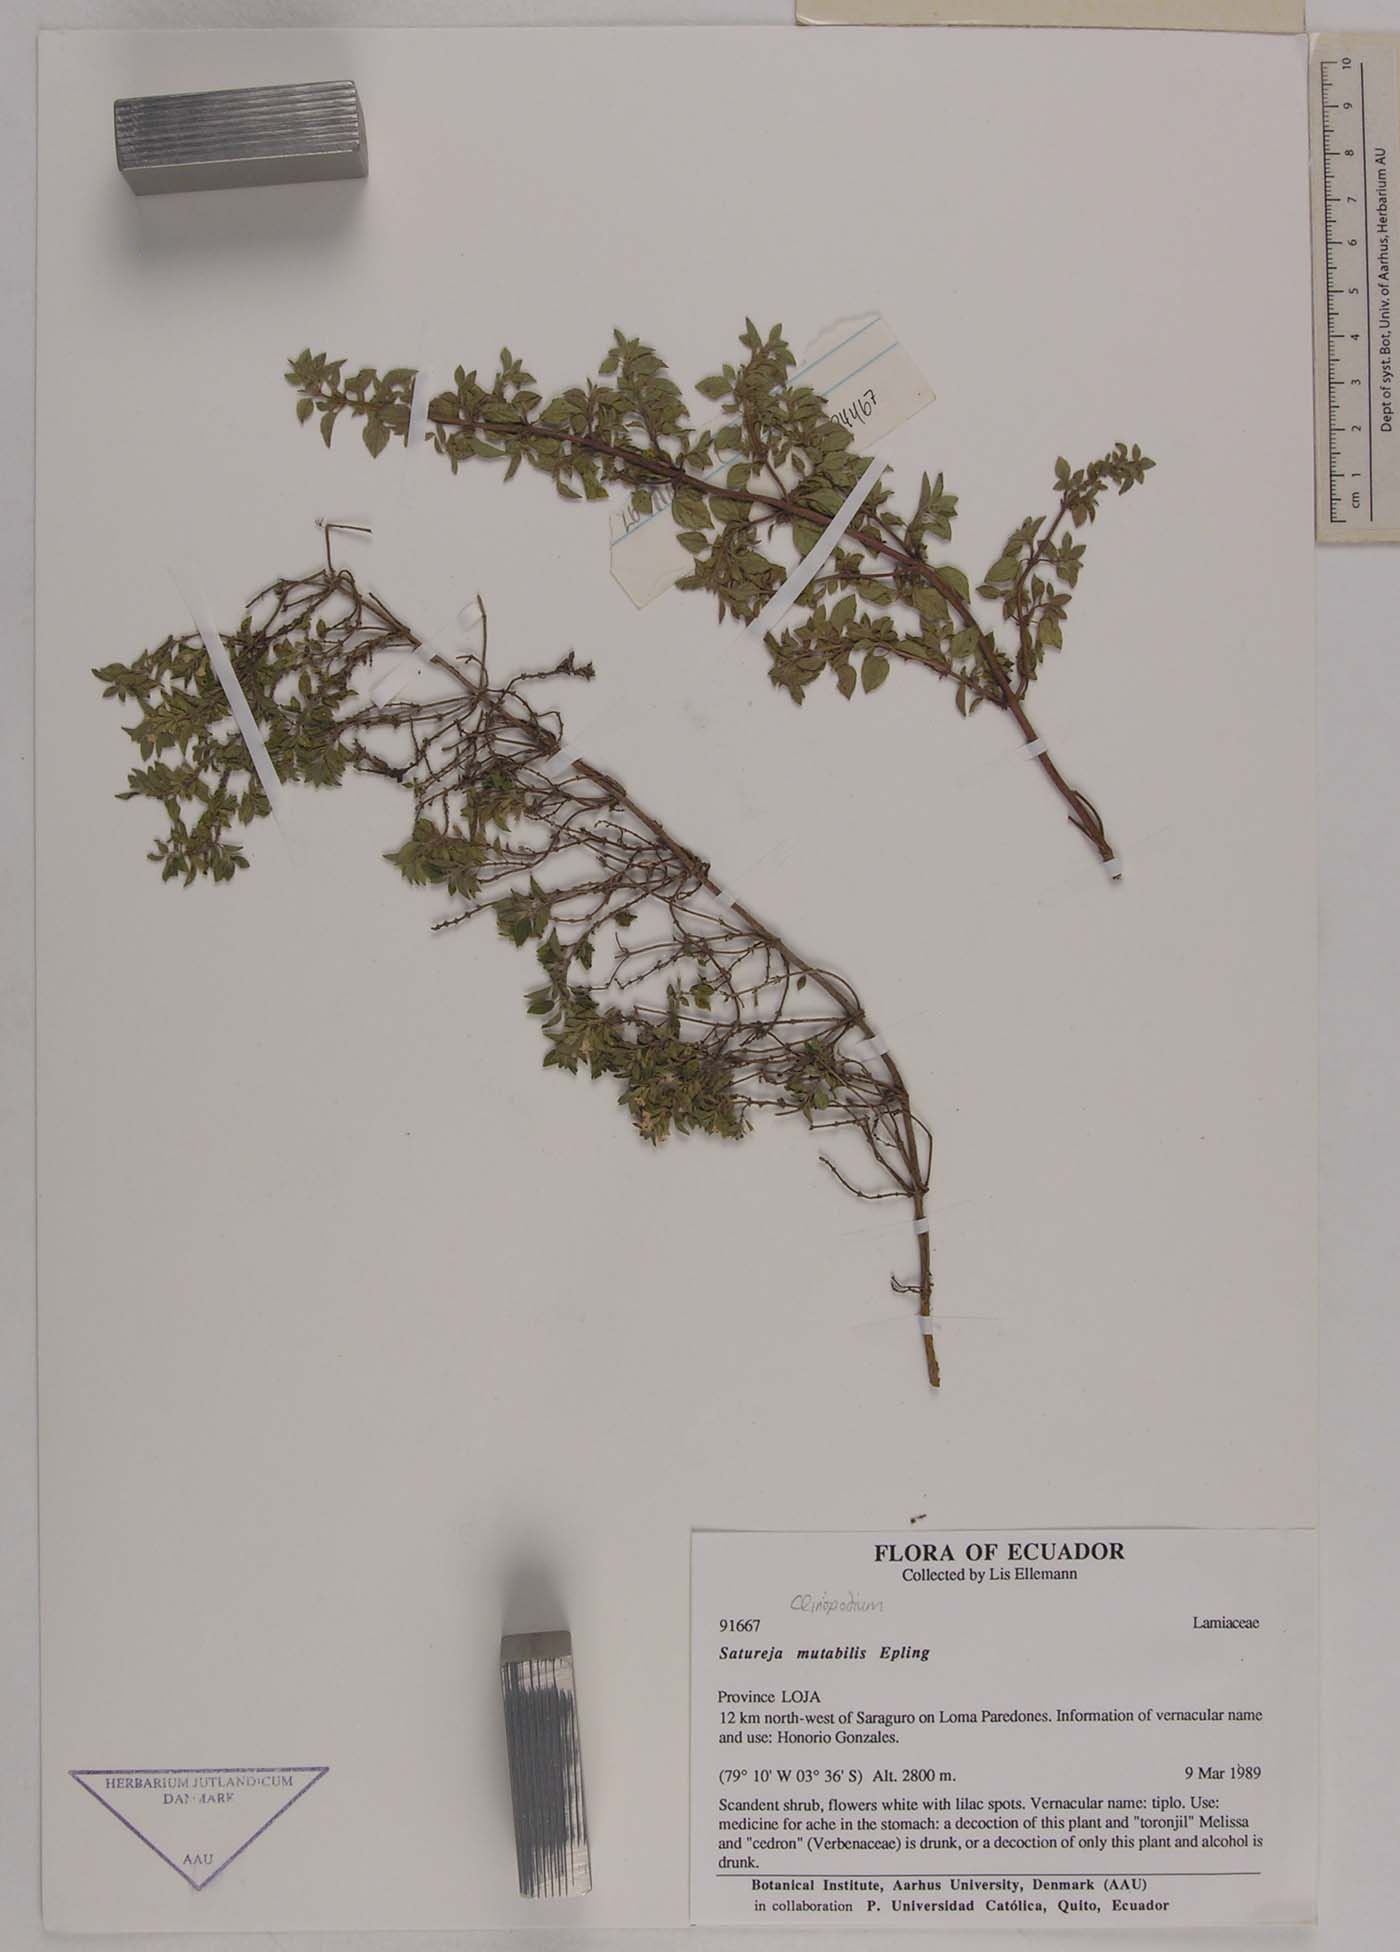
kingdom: Plantae
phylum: Tracheophyta
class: Magnoliopsida
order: Lamiales
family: Lamiaceae
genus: Clinopodium
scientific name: Clinopodium mutabile
